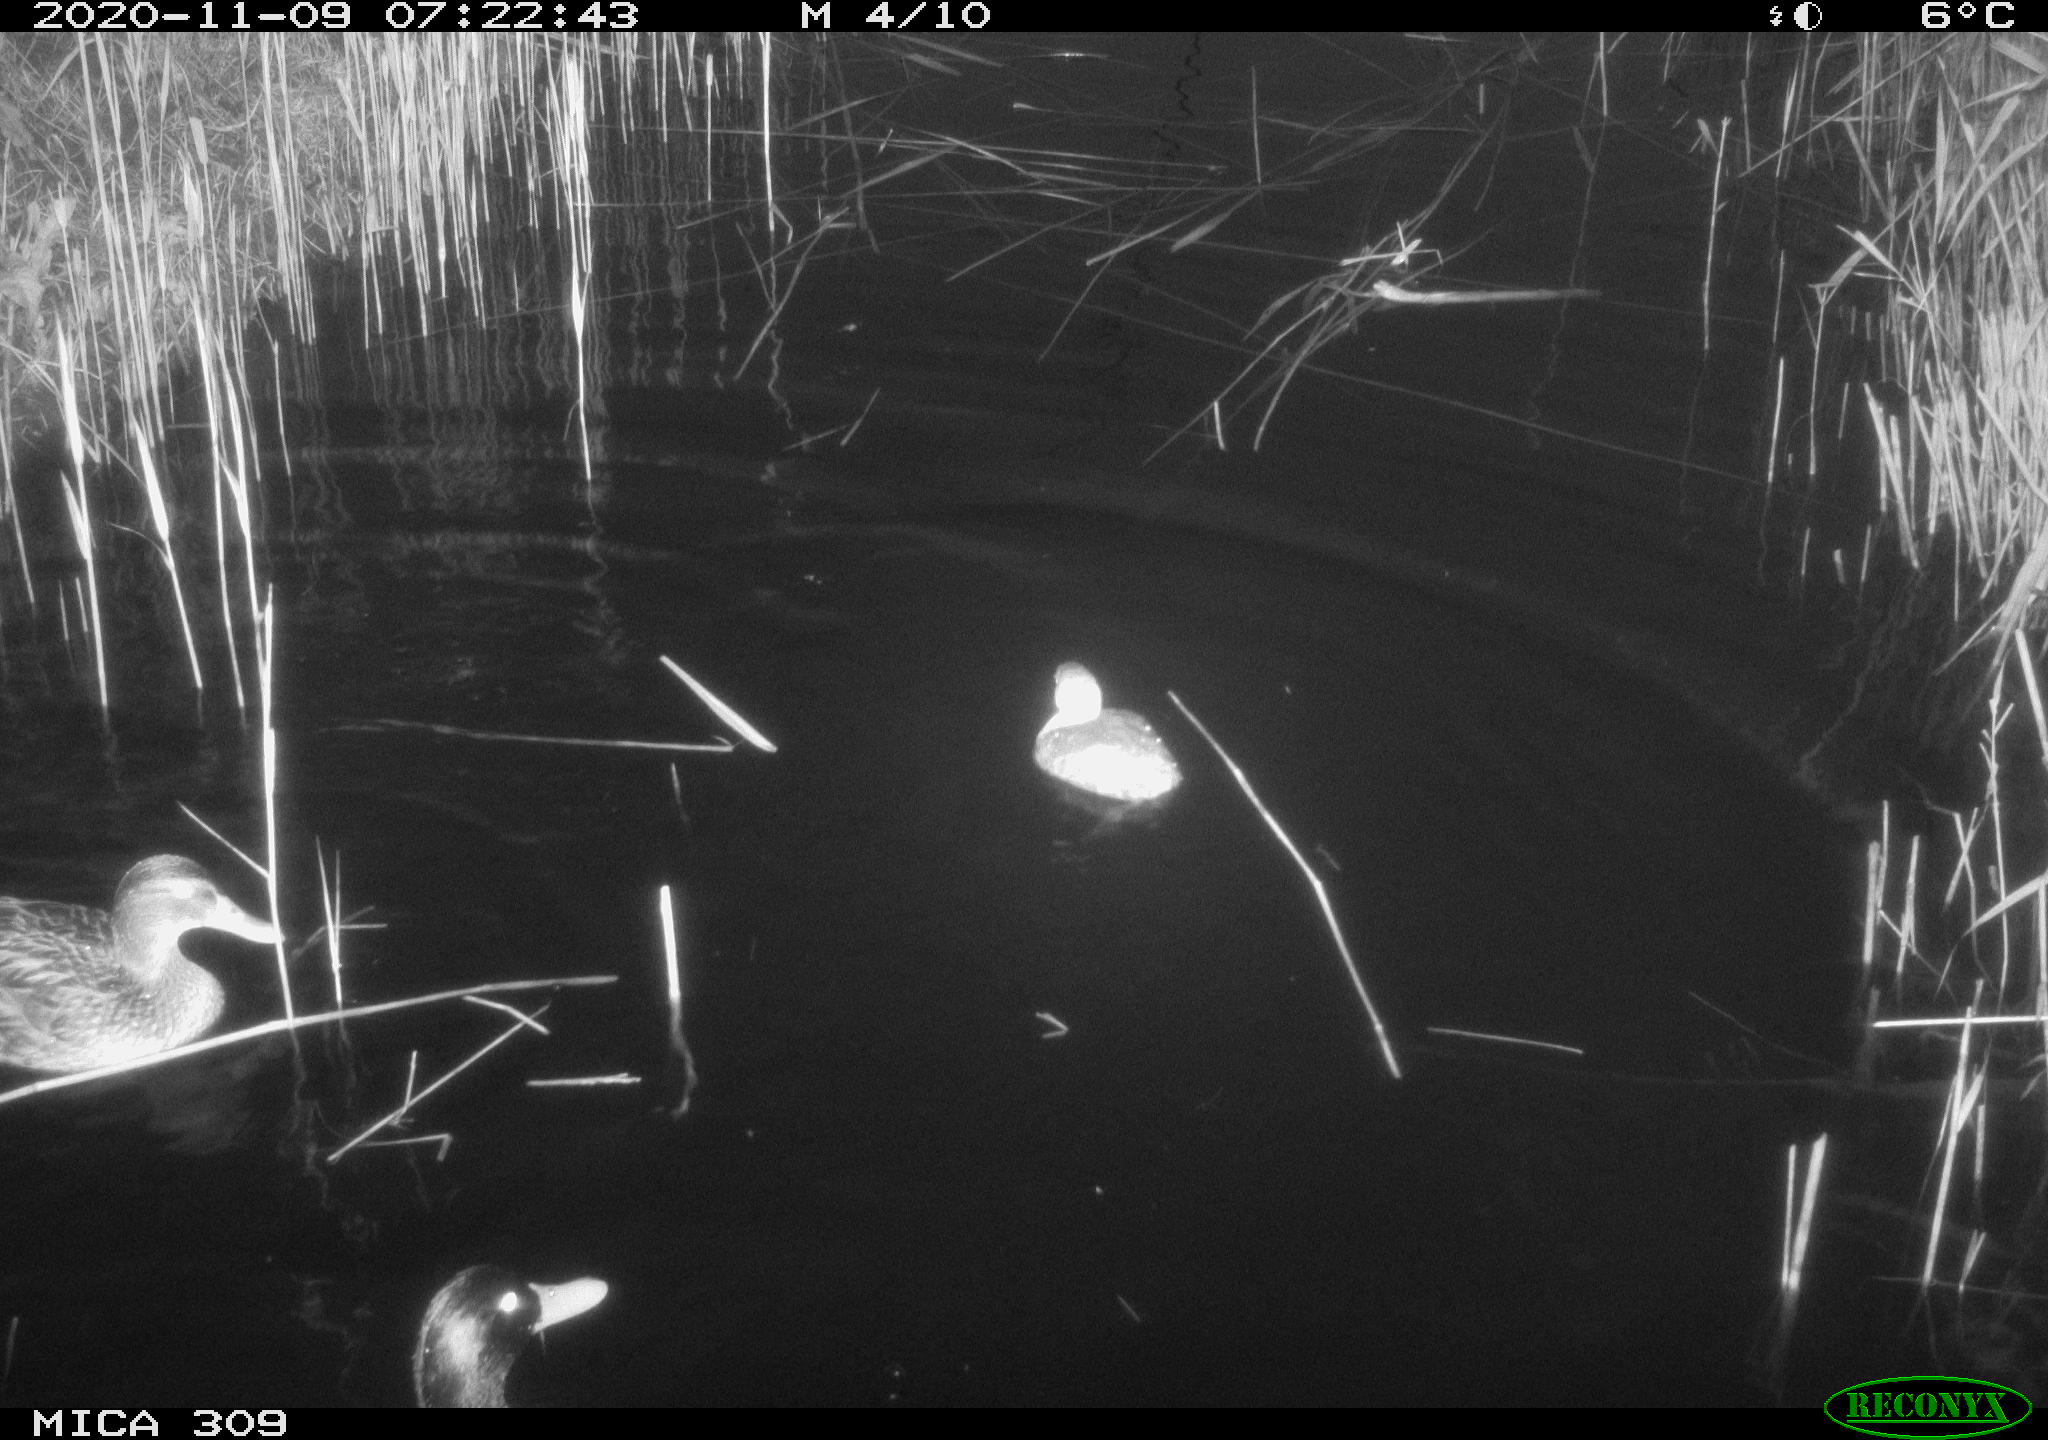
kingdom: Animalia
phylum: Chordata
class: Aves
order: Podicipediformes
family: Podicipedidae
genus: Tachybaptus
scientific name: Tachybaptus ruficollis
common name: Little grebe
